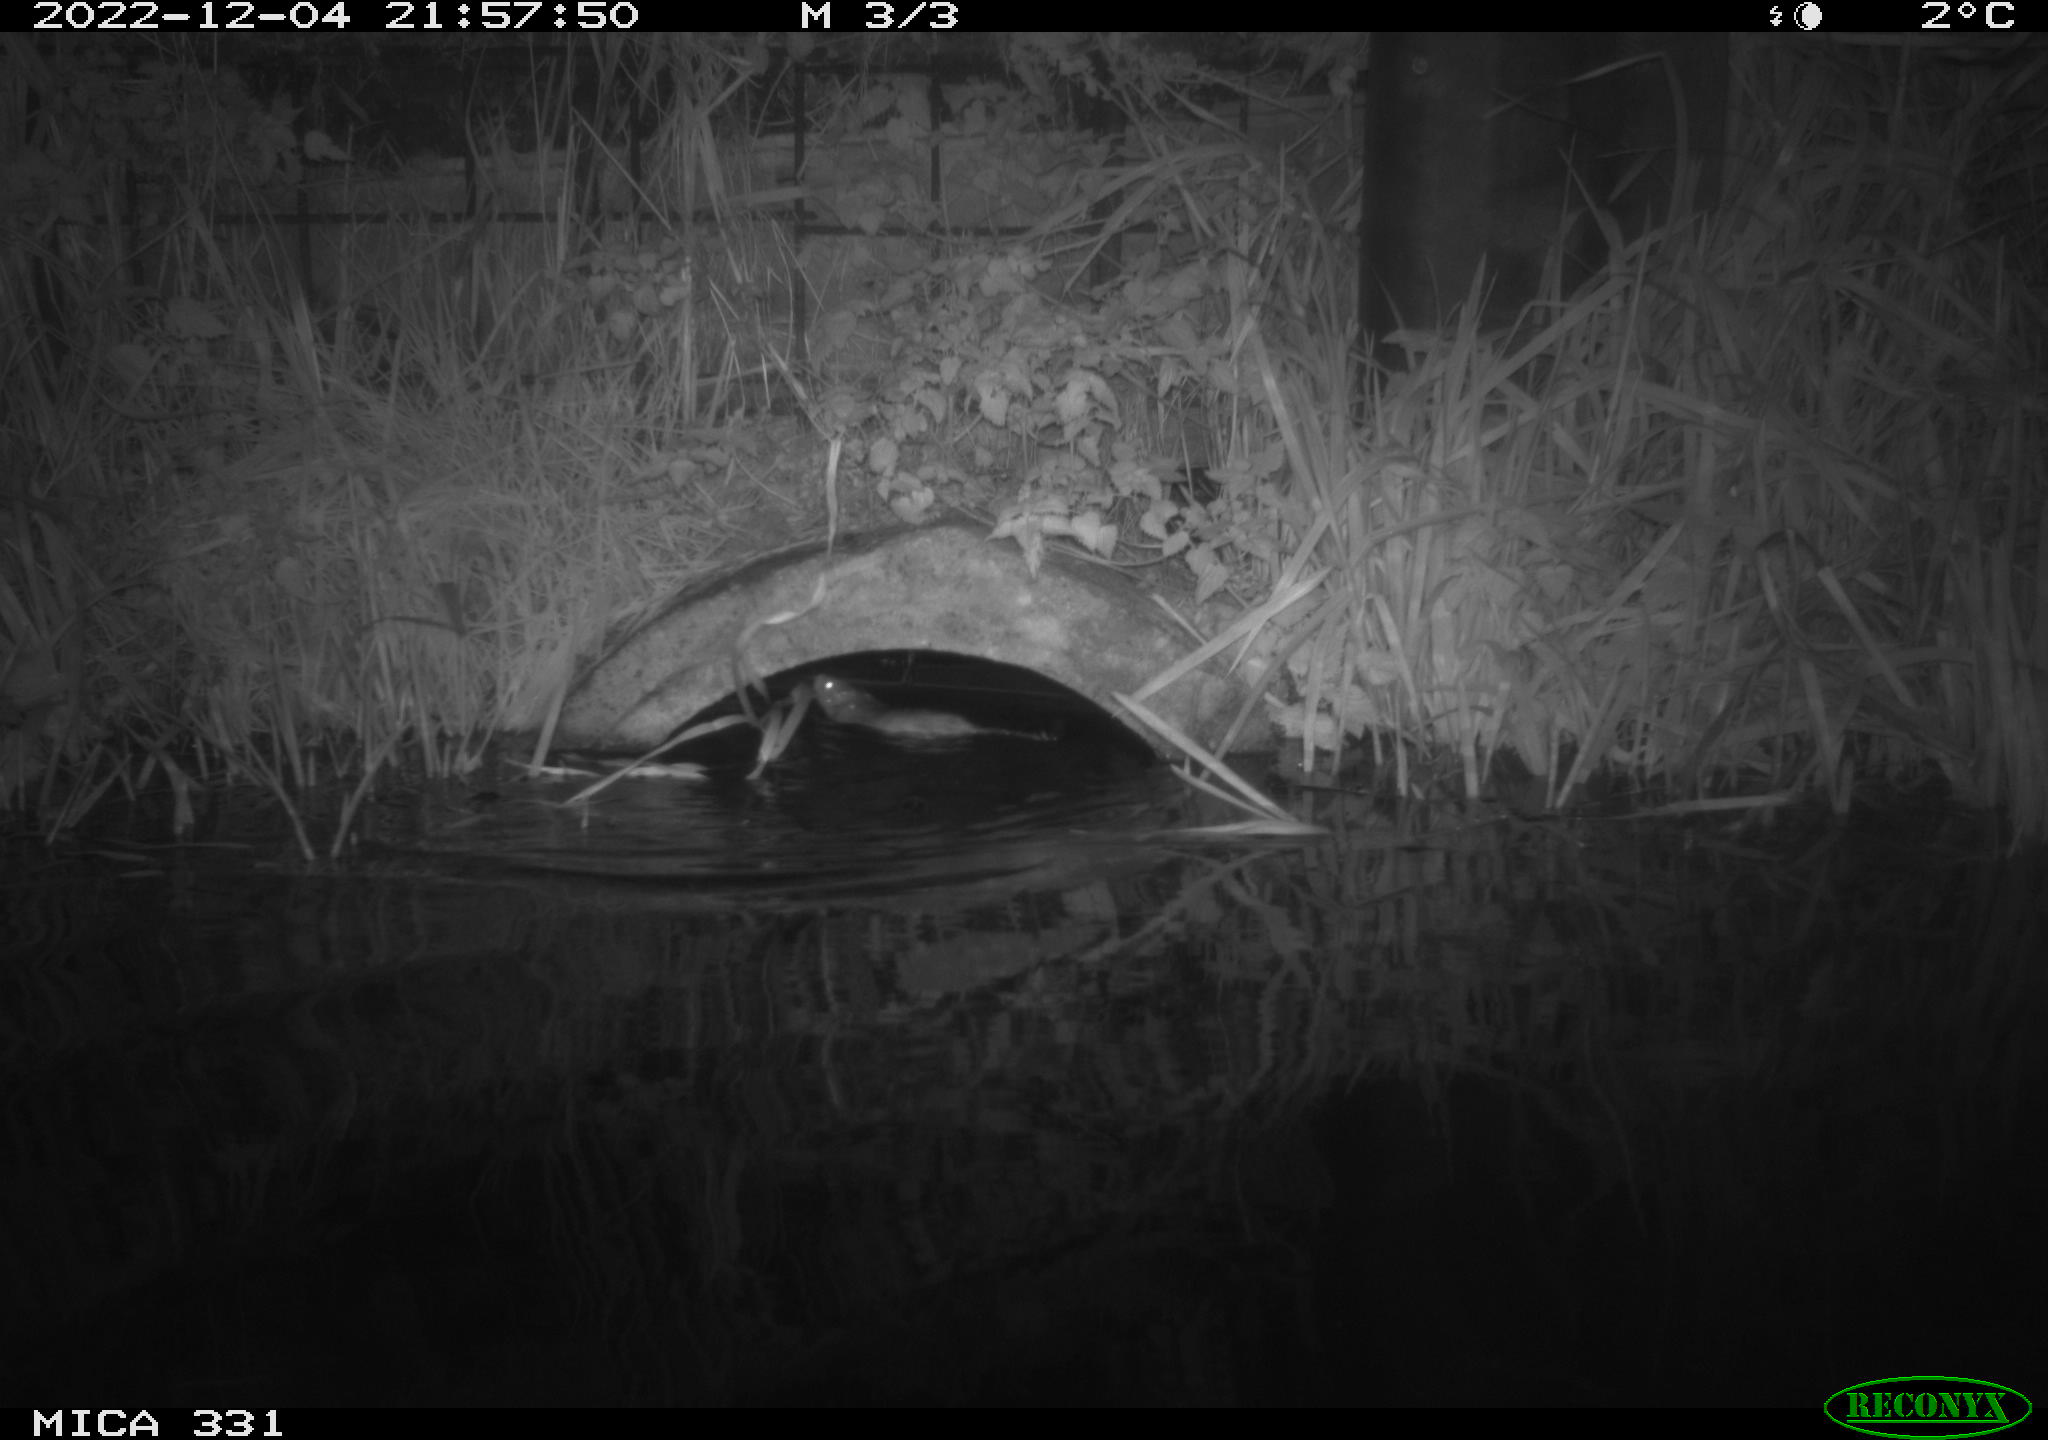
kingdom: Animalia
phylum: Chordata
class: Mammalia
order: Rodentia
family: Muridae
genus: Rattus
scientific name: Rattus norvegicus
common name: Brown rat
